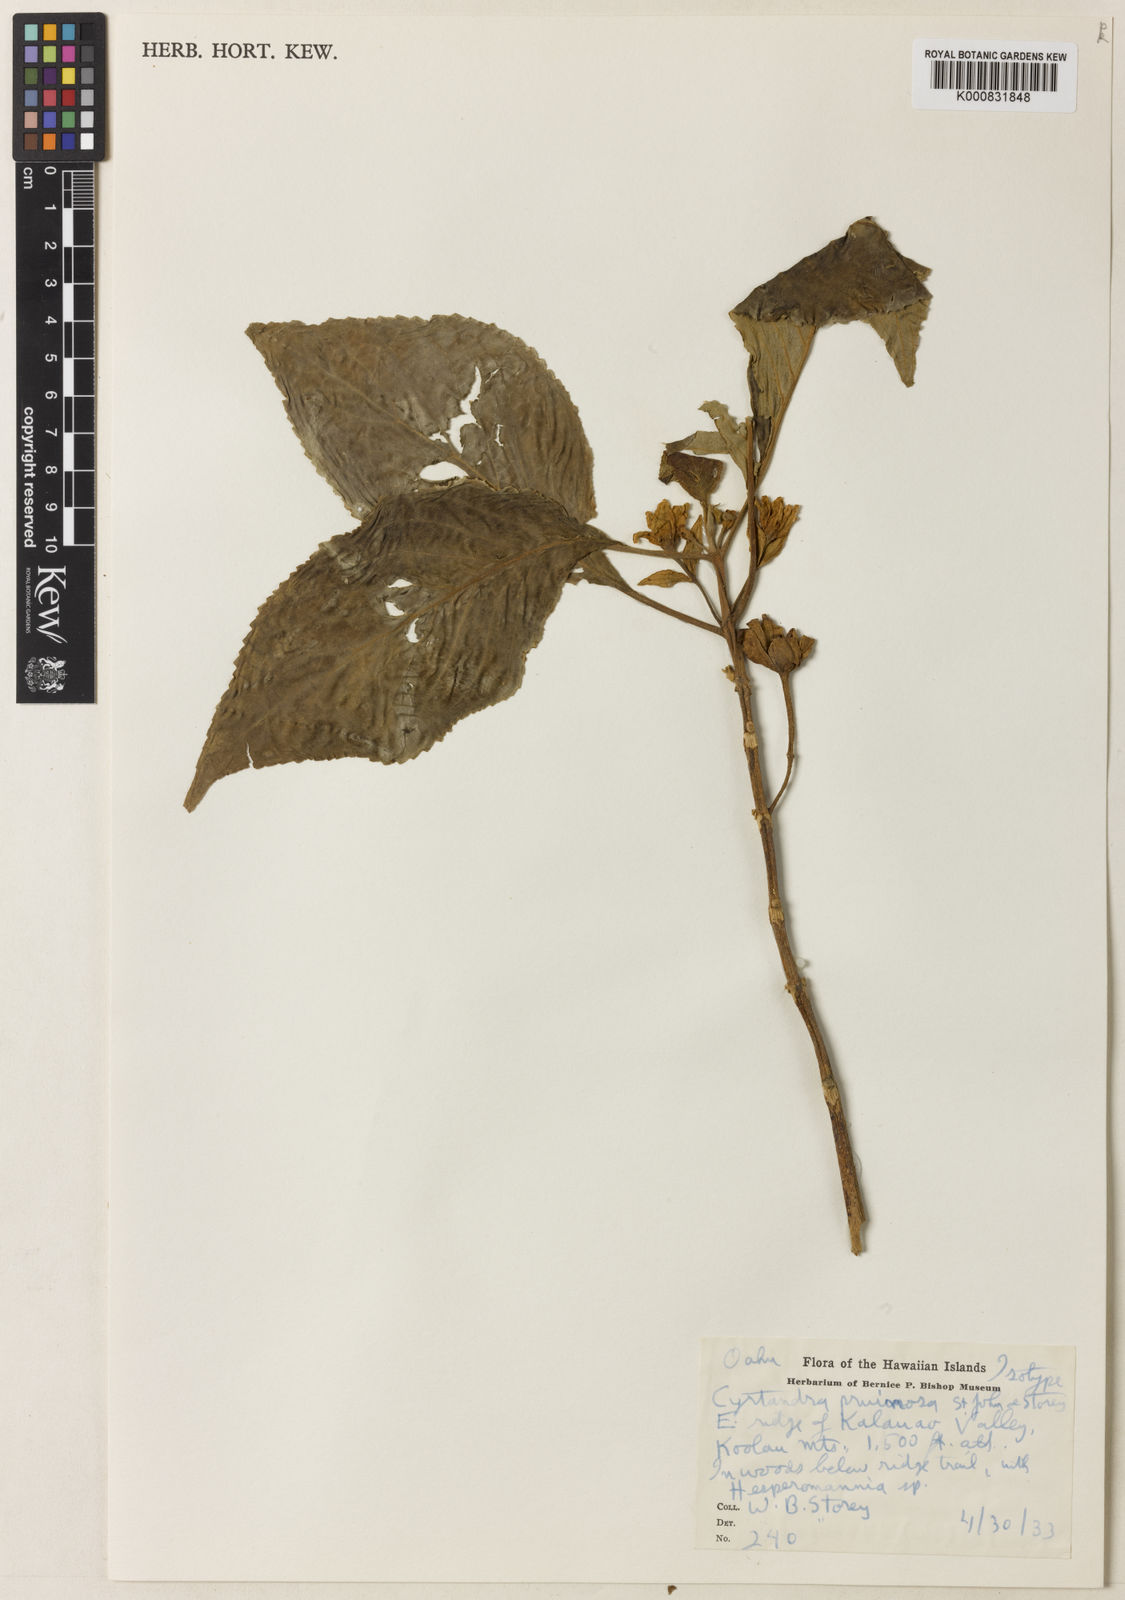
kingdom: Plantae
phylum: Tracheophyta
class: Magnoliopsida
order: Lamiales
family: Gesneriaceae
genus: Cyrtandra
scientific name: Cyrtandra pruinosa
